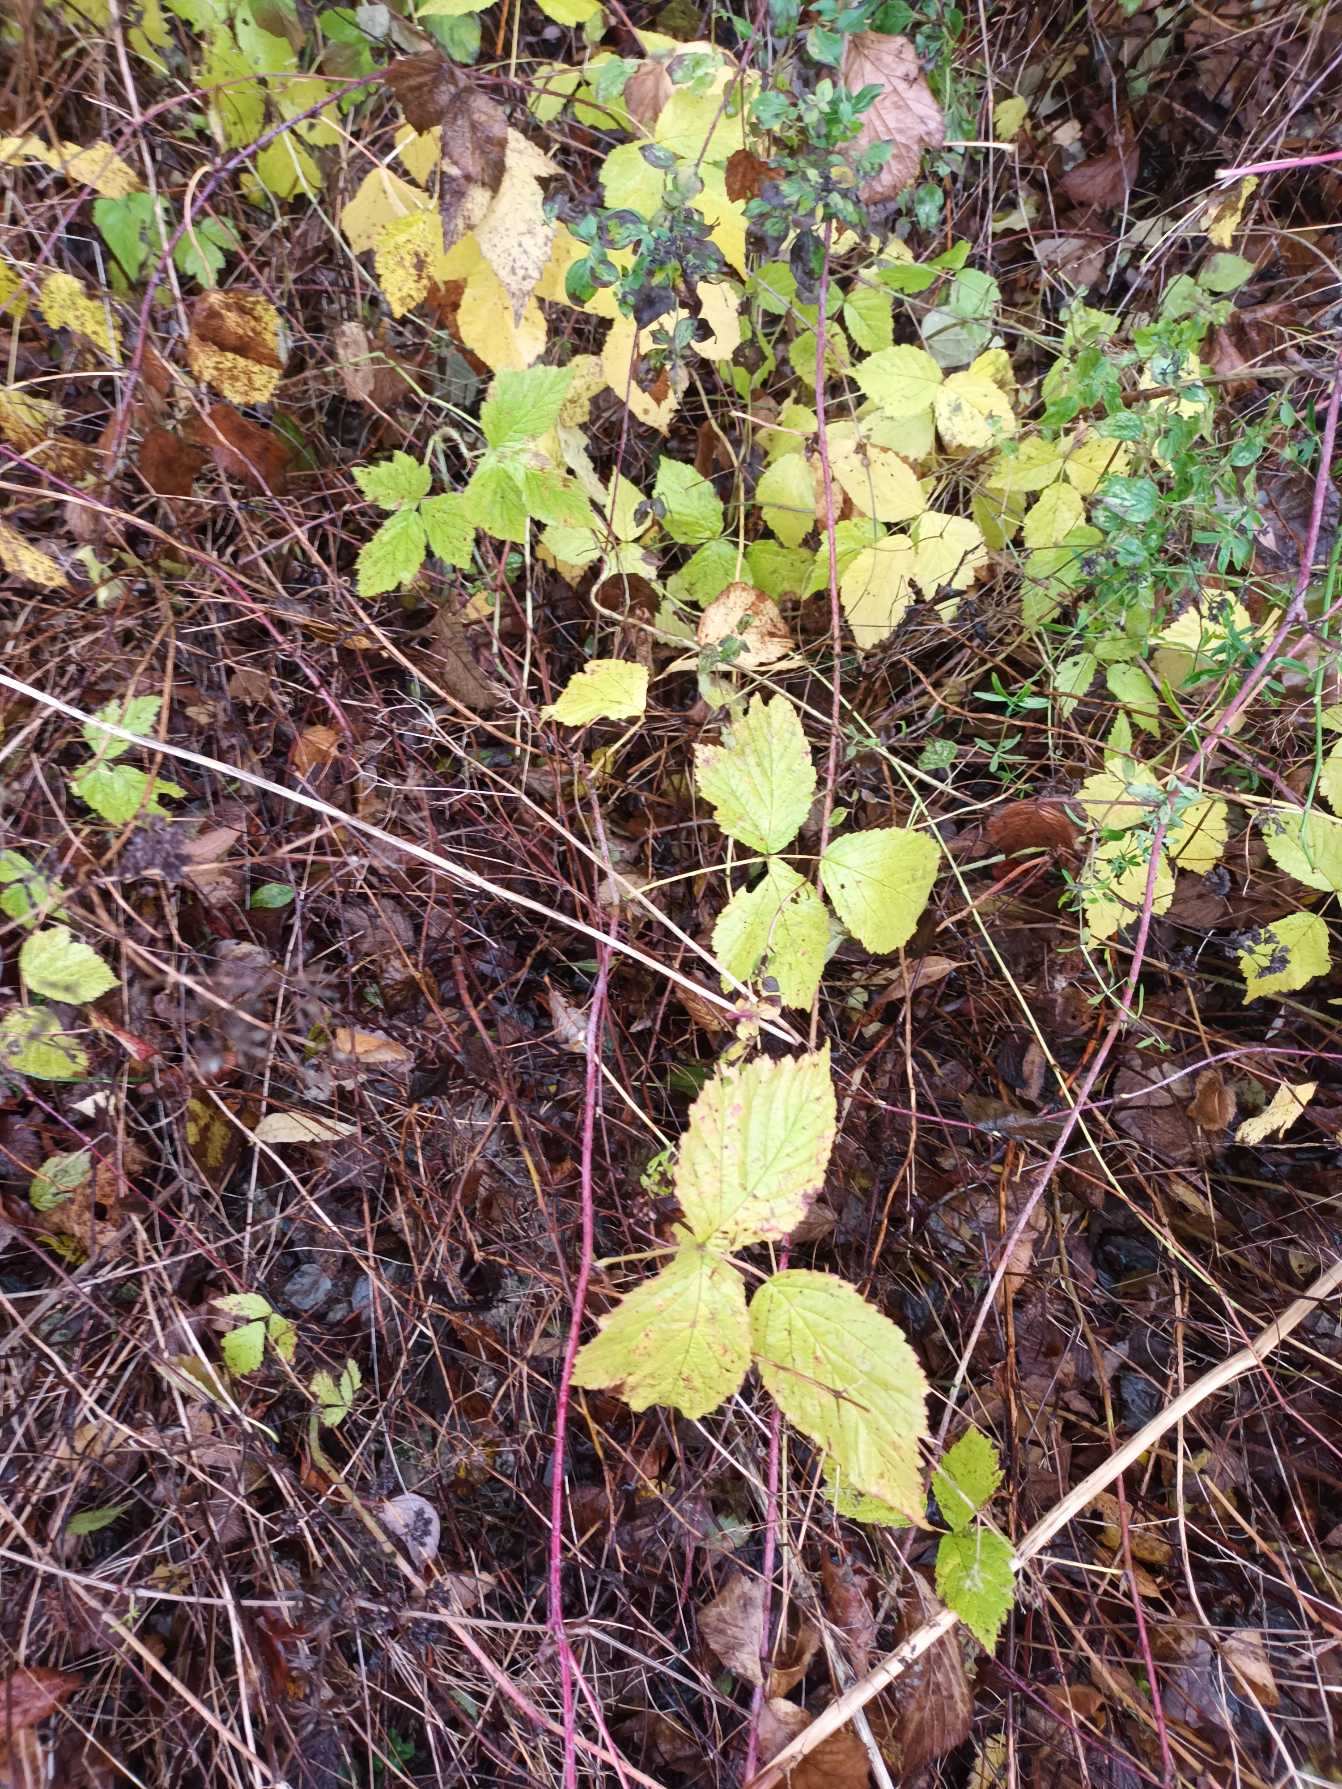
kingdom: Plantae
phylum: Tracheophyta
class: Magnoliopsida
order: Rosales
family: Rosaceae
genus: Rubus
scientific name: Rubus caesius
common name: Korbær
